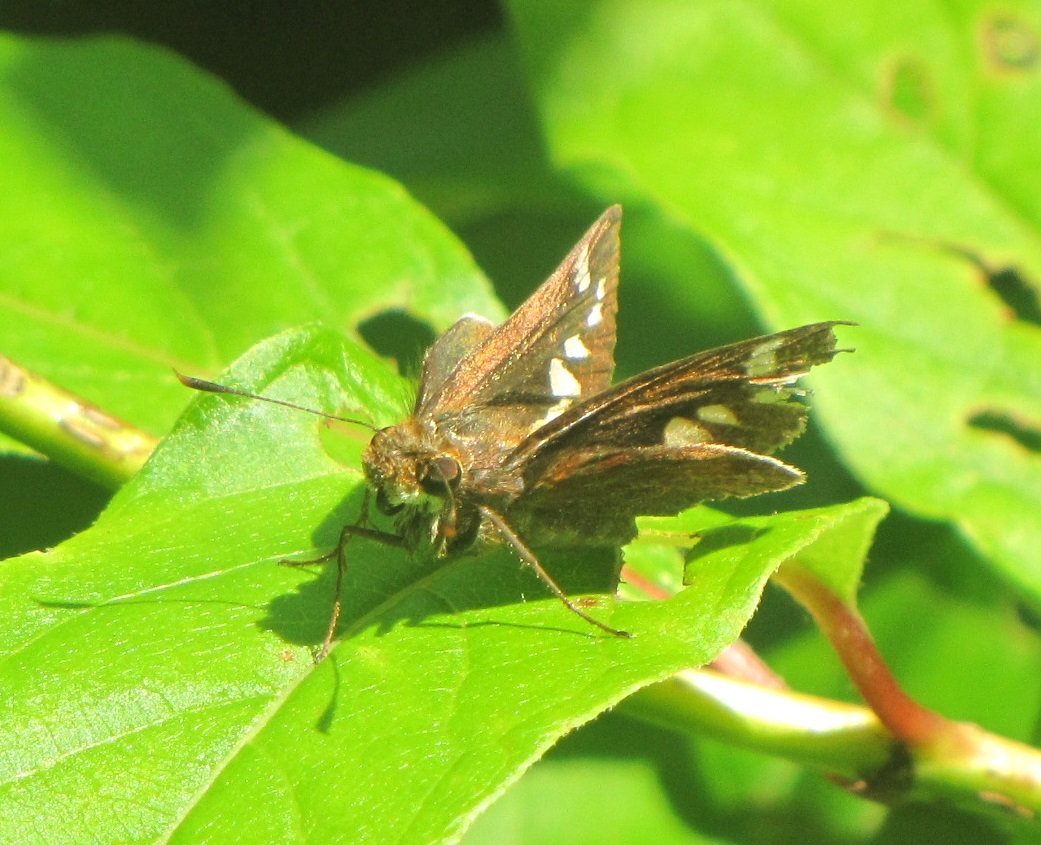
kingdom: Animalia
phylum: Arthropoda
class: Insecta
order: Lepidoptera
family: Hesperiidae
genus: Lon
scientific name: Lon zabulon
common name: Zabulon Skipper
